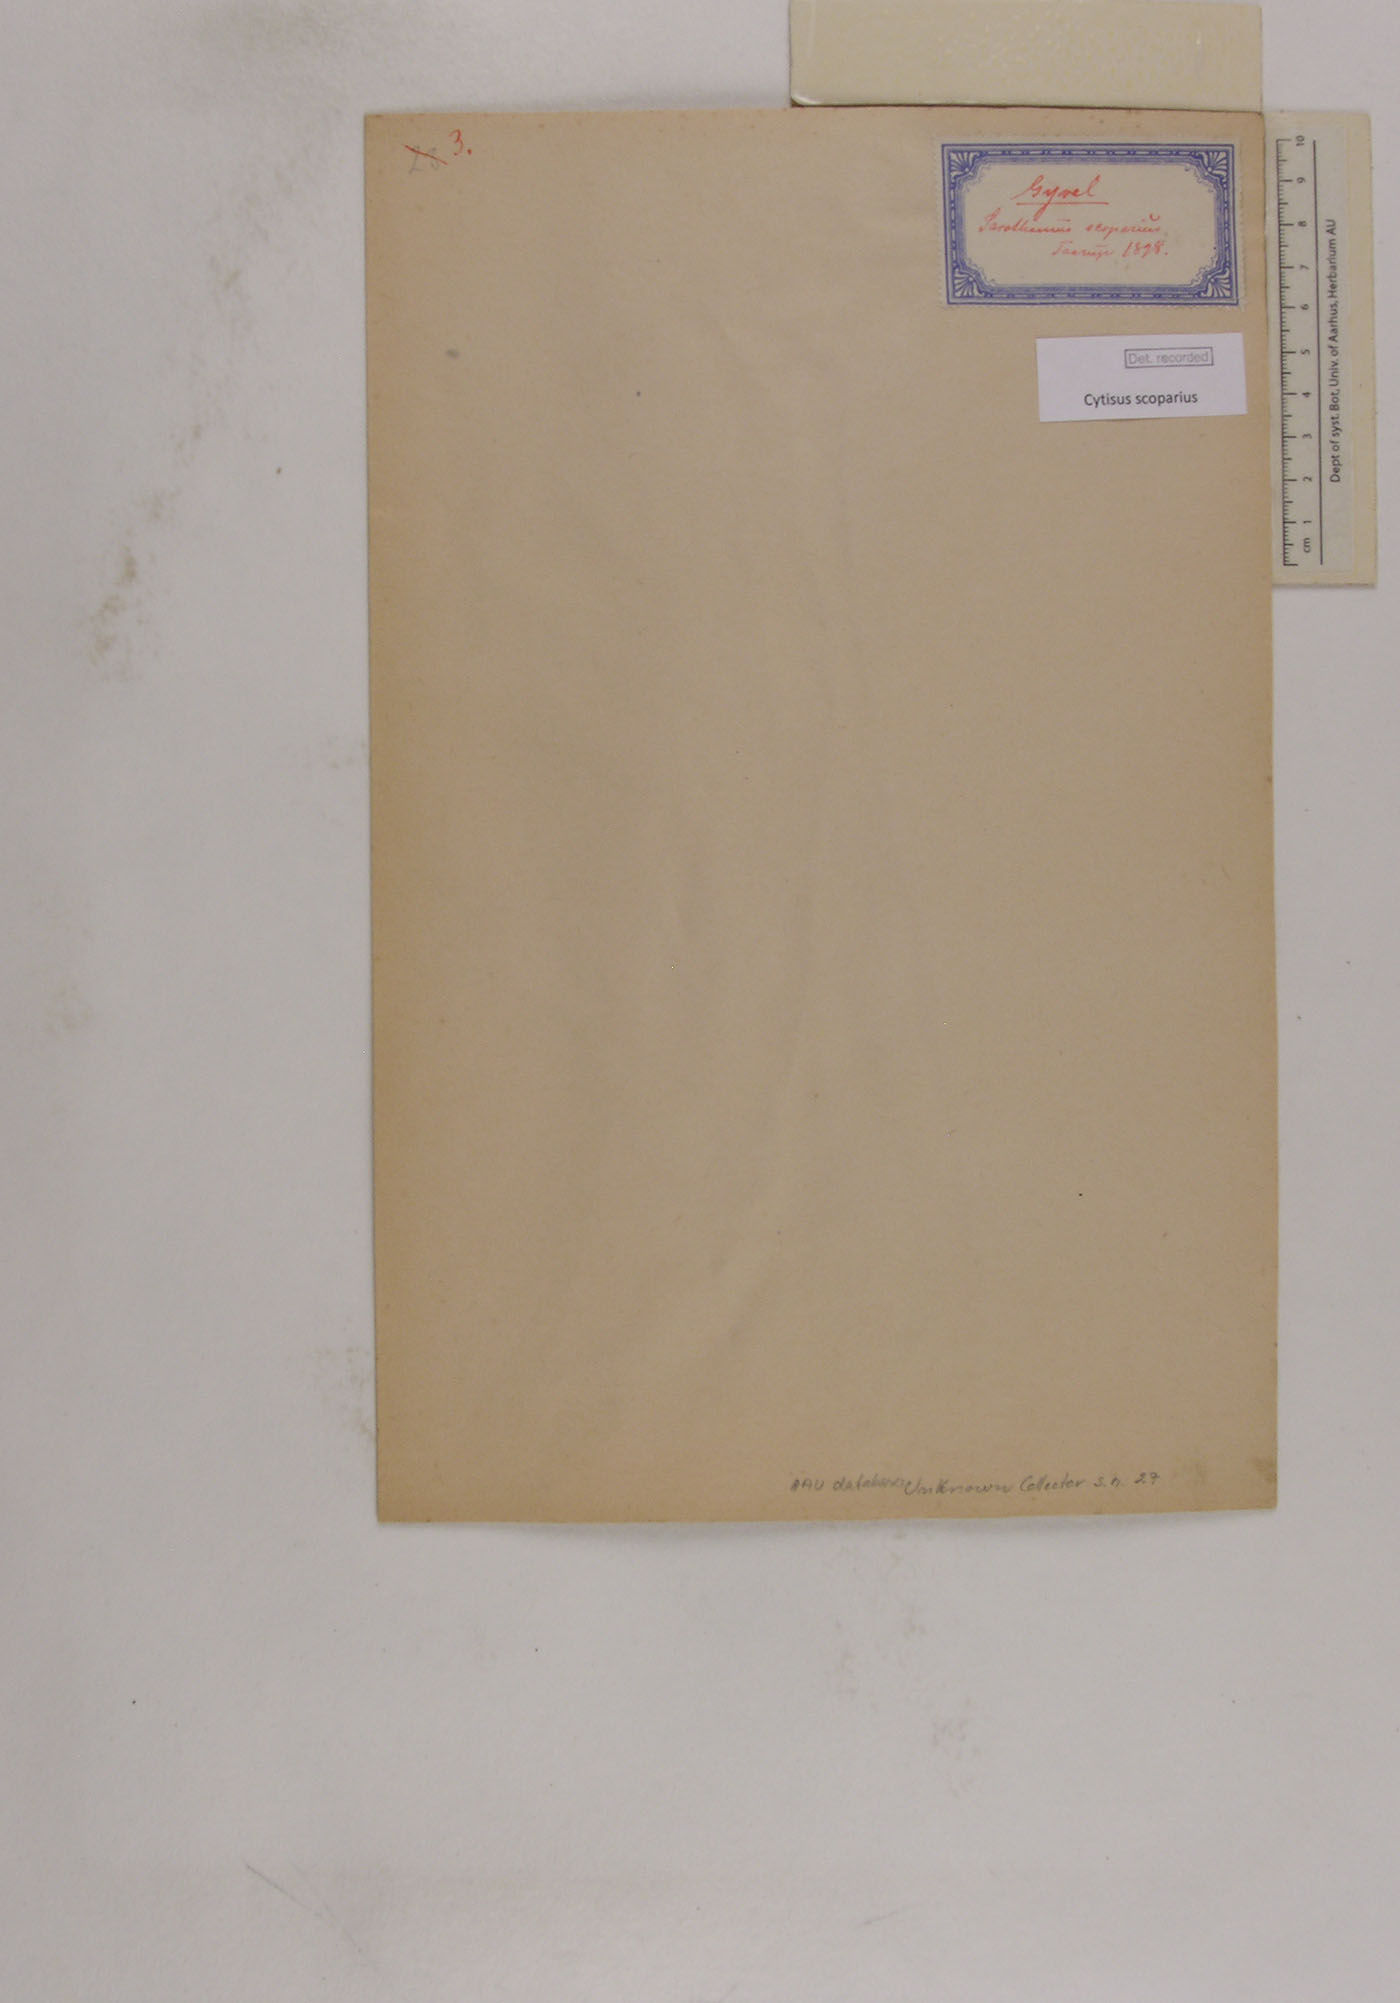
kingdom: Plantae
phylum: Tracheophyta
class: Magnoliopsida
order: Fabales
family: Fabaceae
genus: Cytisus
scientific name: Cytisus scoparius
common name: Scotch broom
